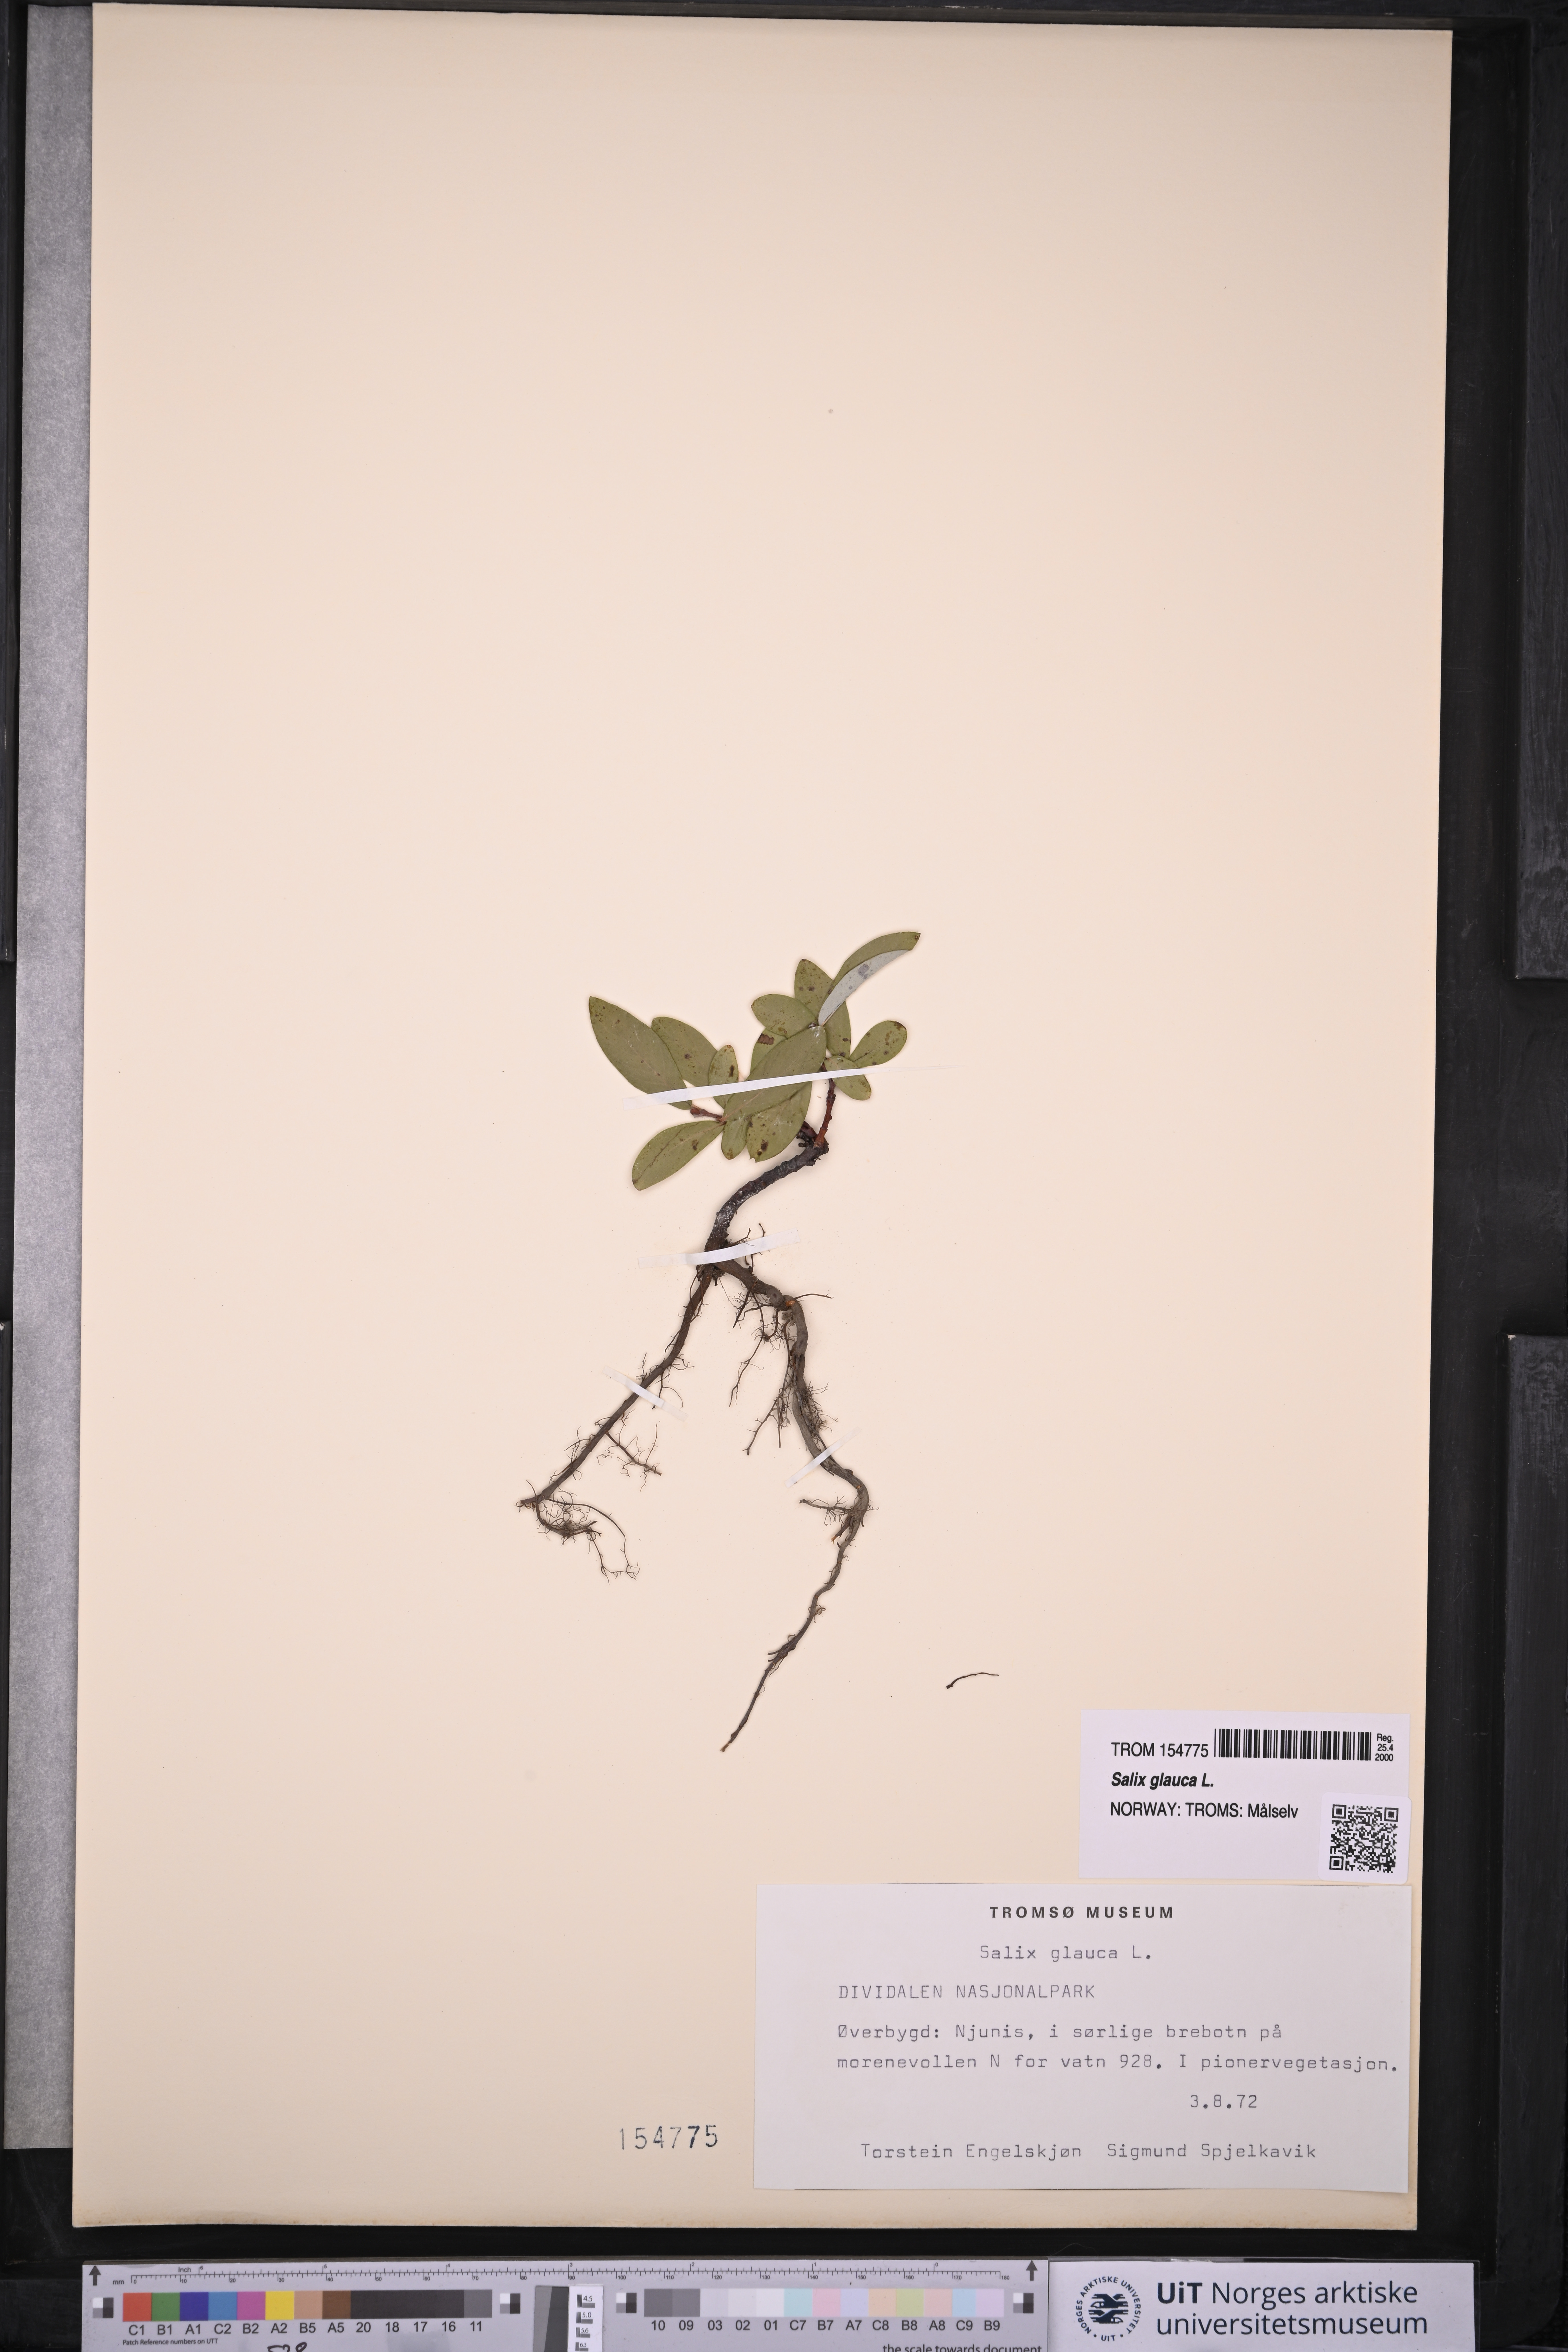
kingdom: Plantae
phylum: Tracheophyta
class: Magnoliopsida
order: Malpighiales
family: Salicaceae
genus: Salix
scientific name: Salix glauca
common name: Glaucous willow
